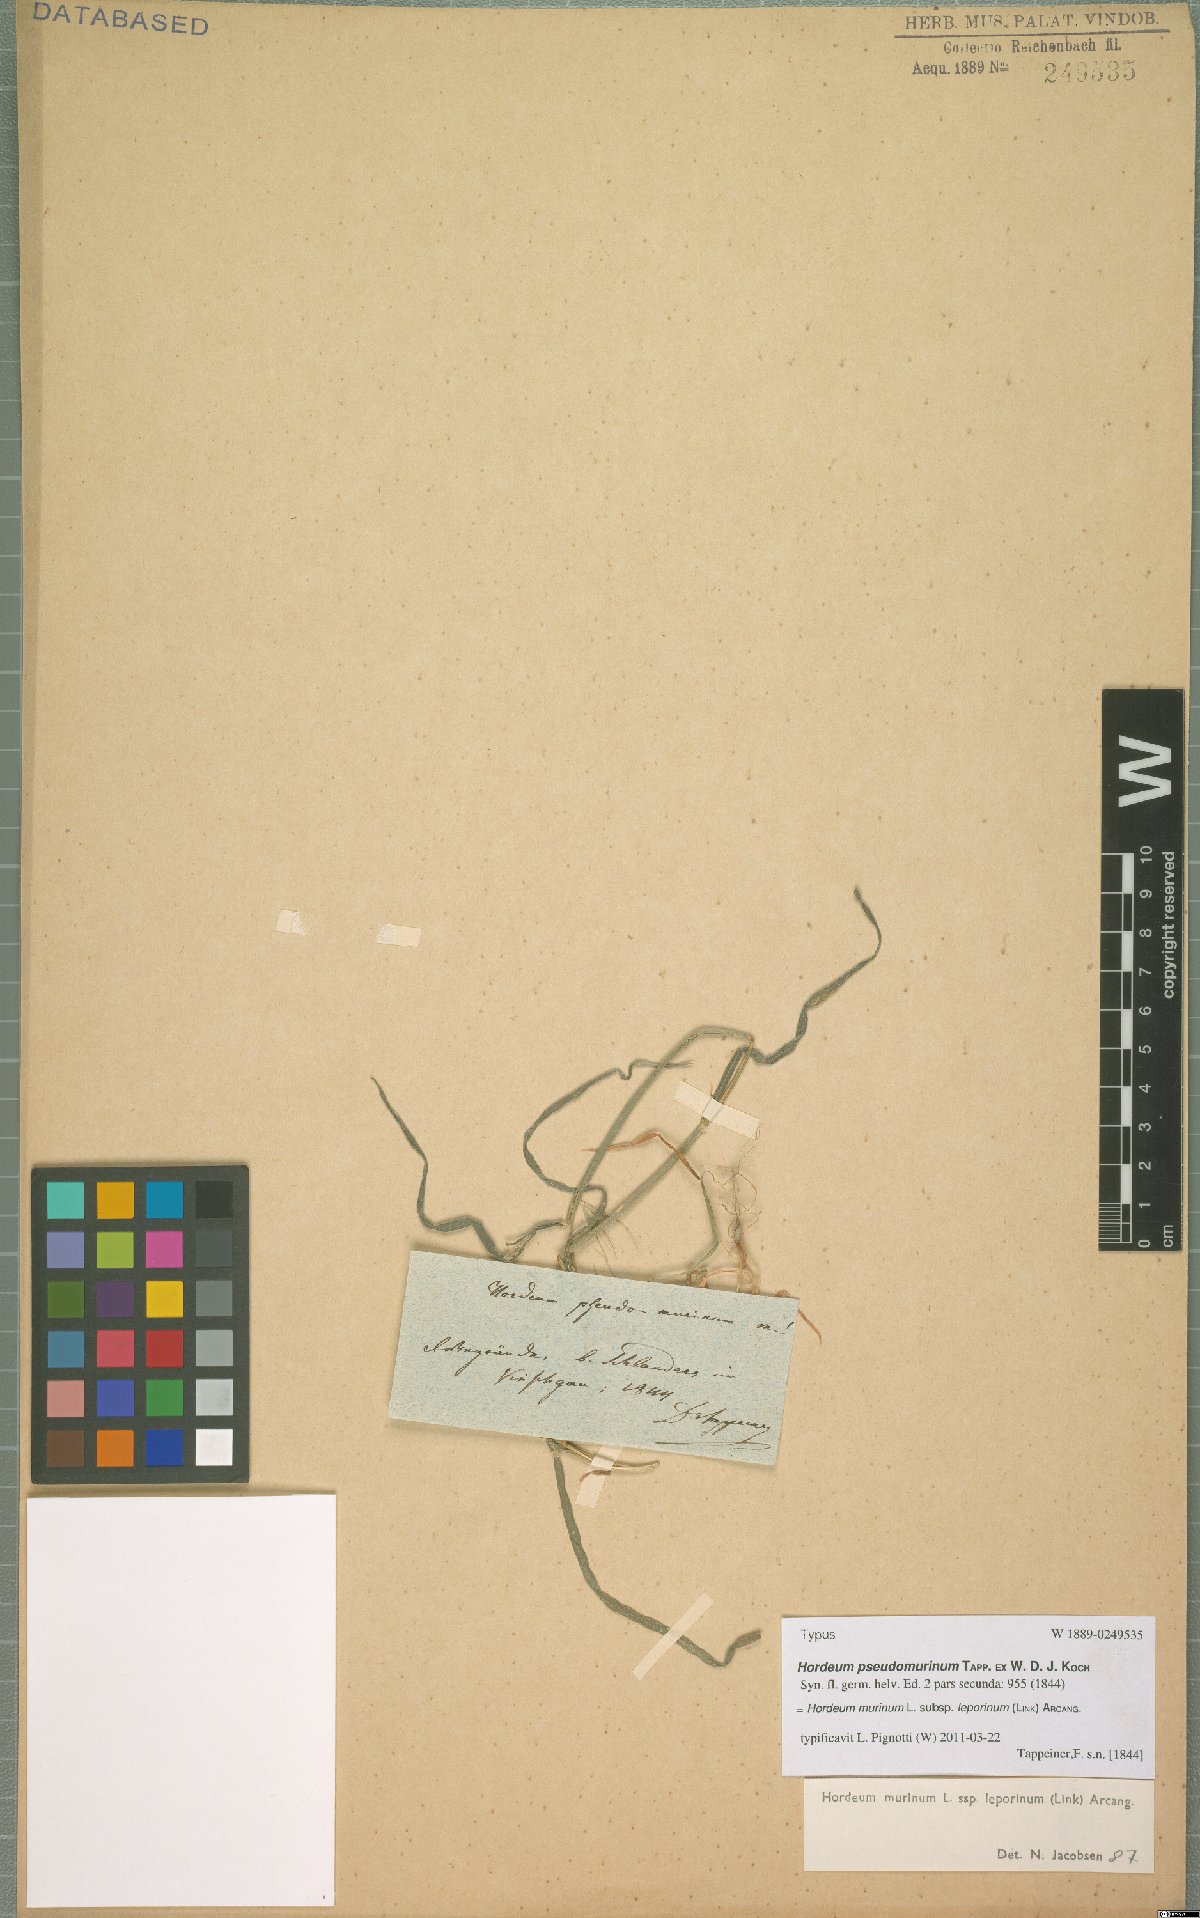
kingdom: Plantae
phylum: Tracheophyta
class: Liliopsida
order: Poales
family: Poaceae
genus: Hordeum
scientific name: Hordeum murinum
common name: Wall barley
